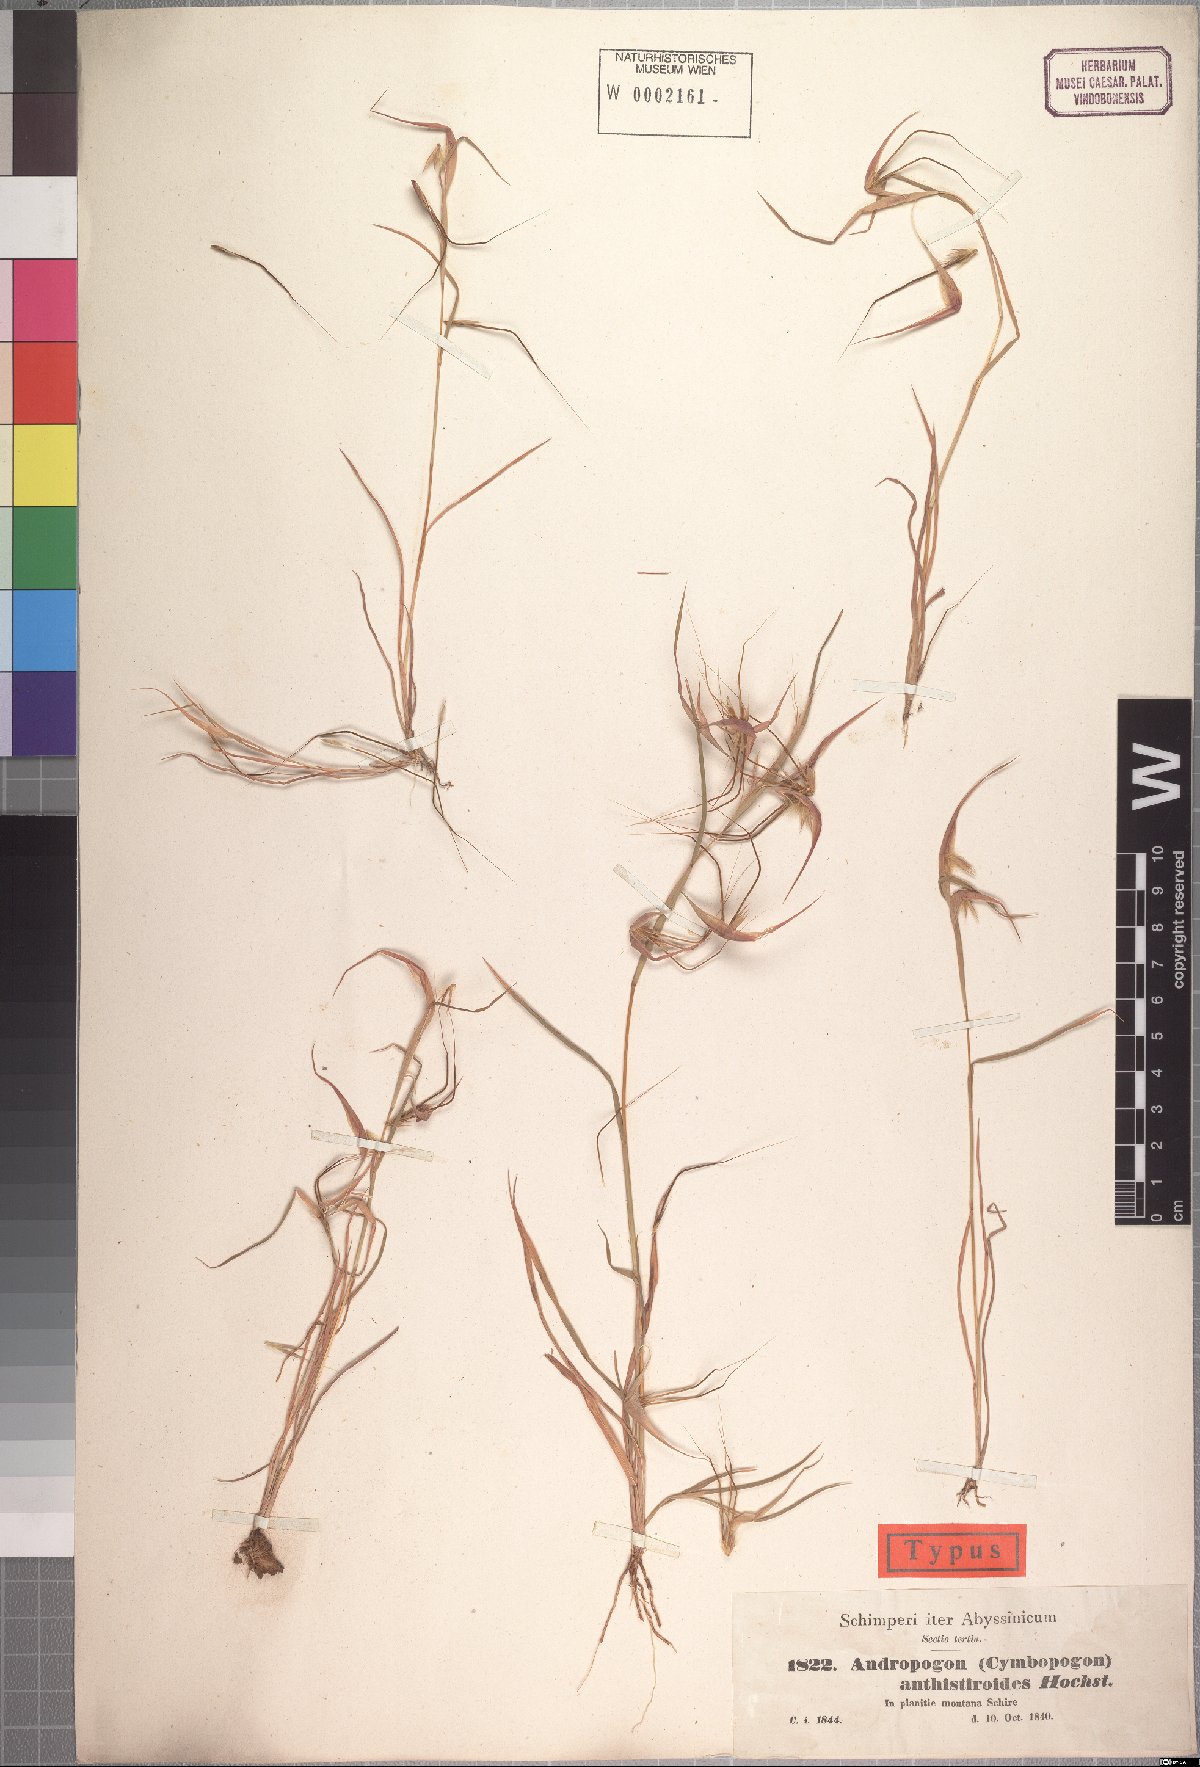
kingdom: Plantae
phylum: Tracheophyta
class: Liliopsida
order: Poales
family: Poaceae
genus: Hyparrhenia
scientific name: Hyparrhenia anthistirioides
